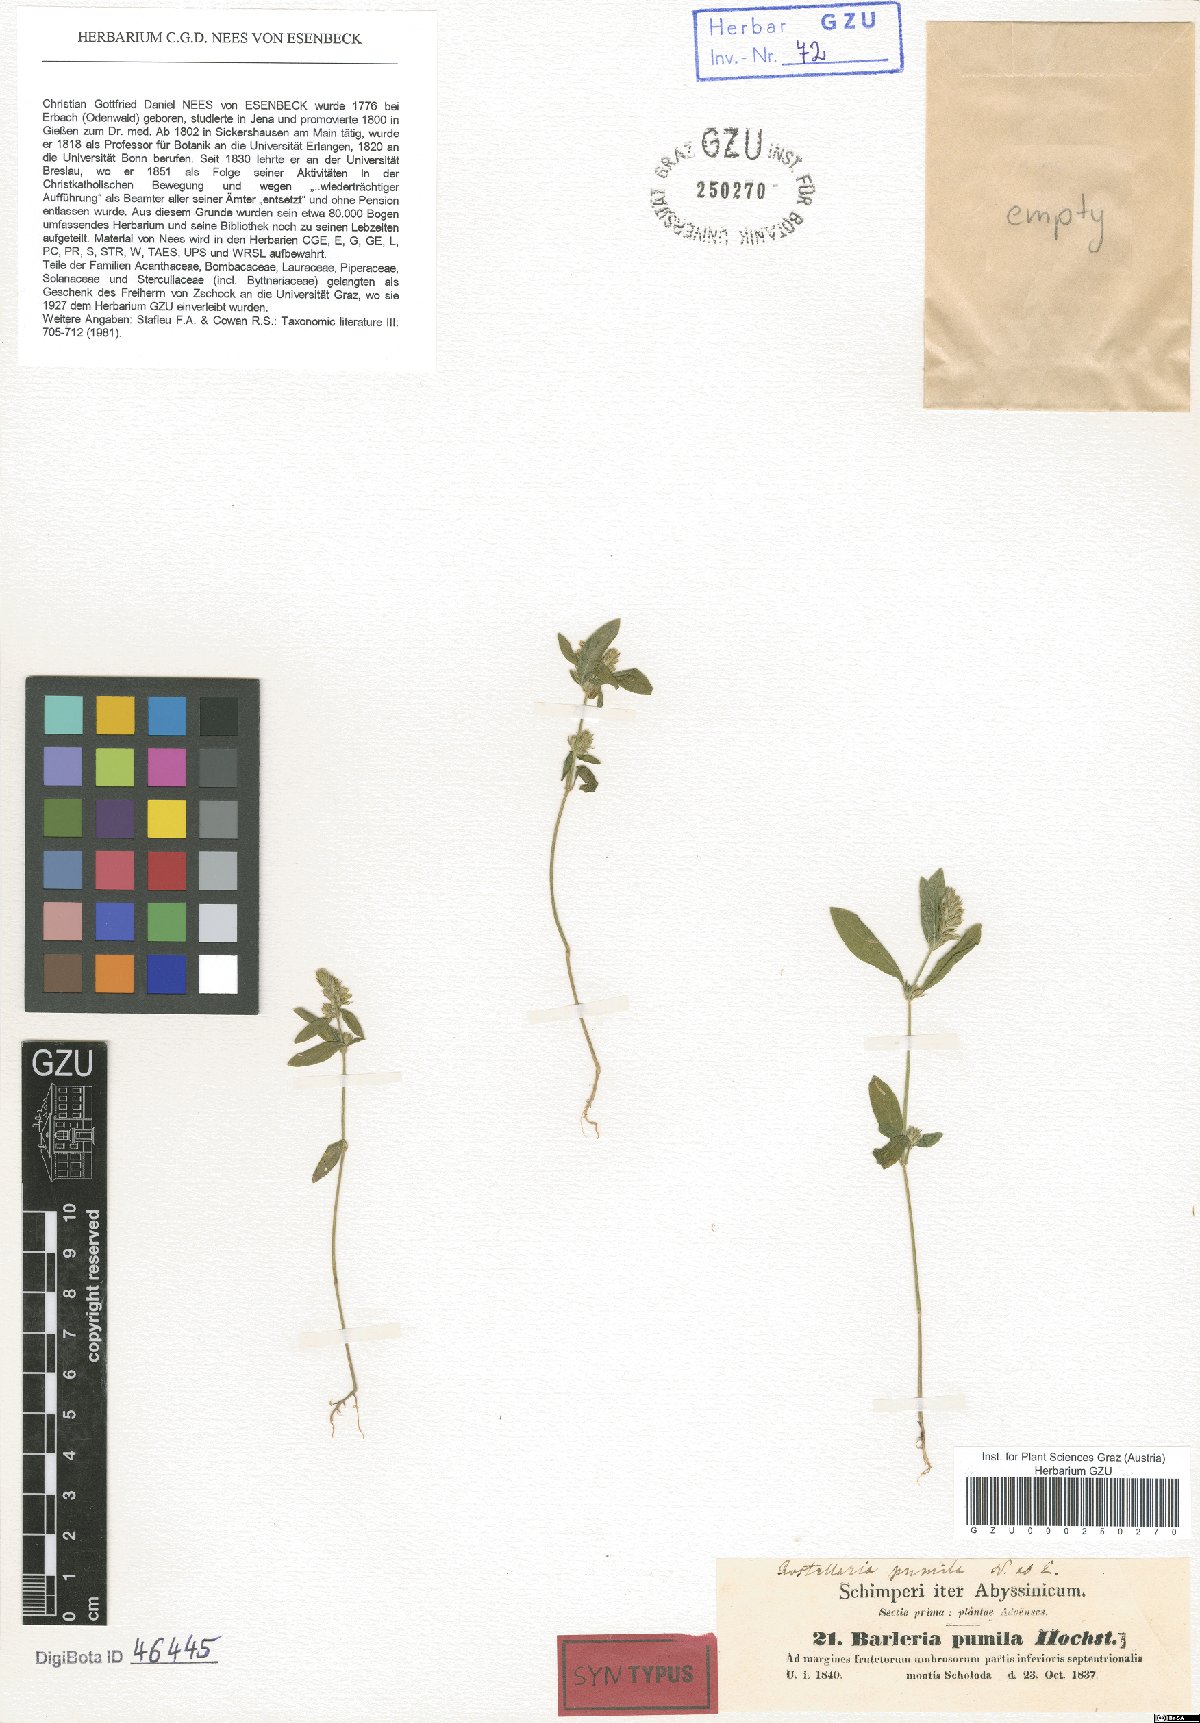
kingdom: Plantae
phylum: Tracheophyta
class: Magnoliopsida
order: Lamiales
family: Acanthaceae
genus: Rostellularia
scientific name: Rostellularia diffusa
